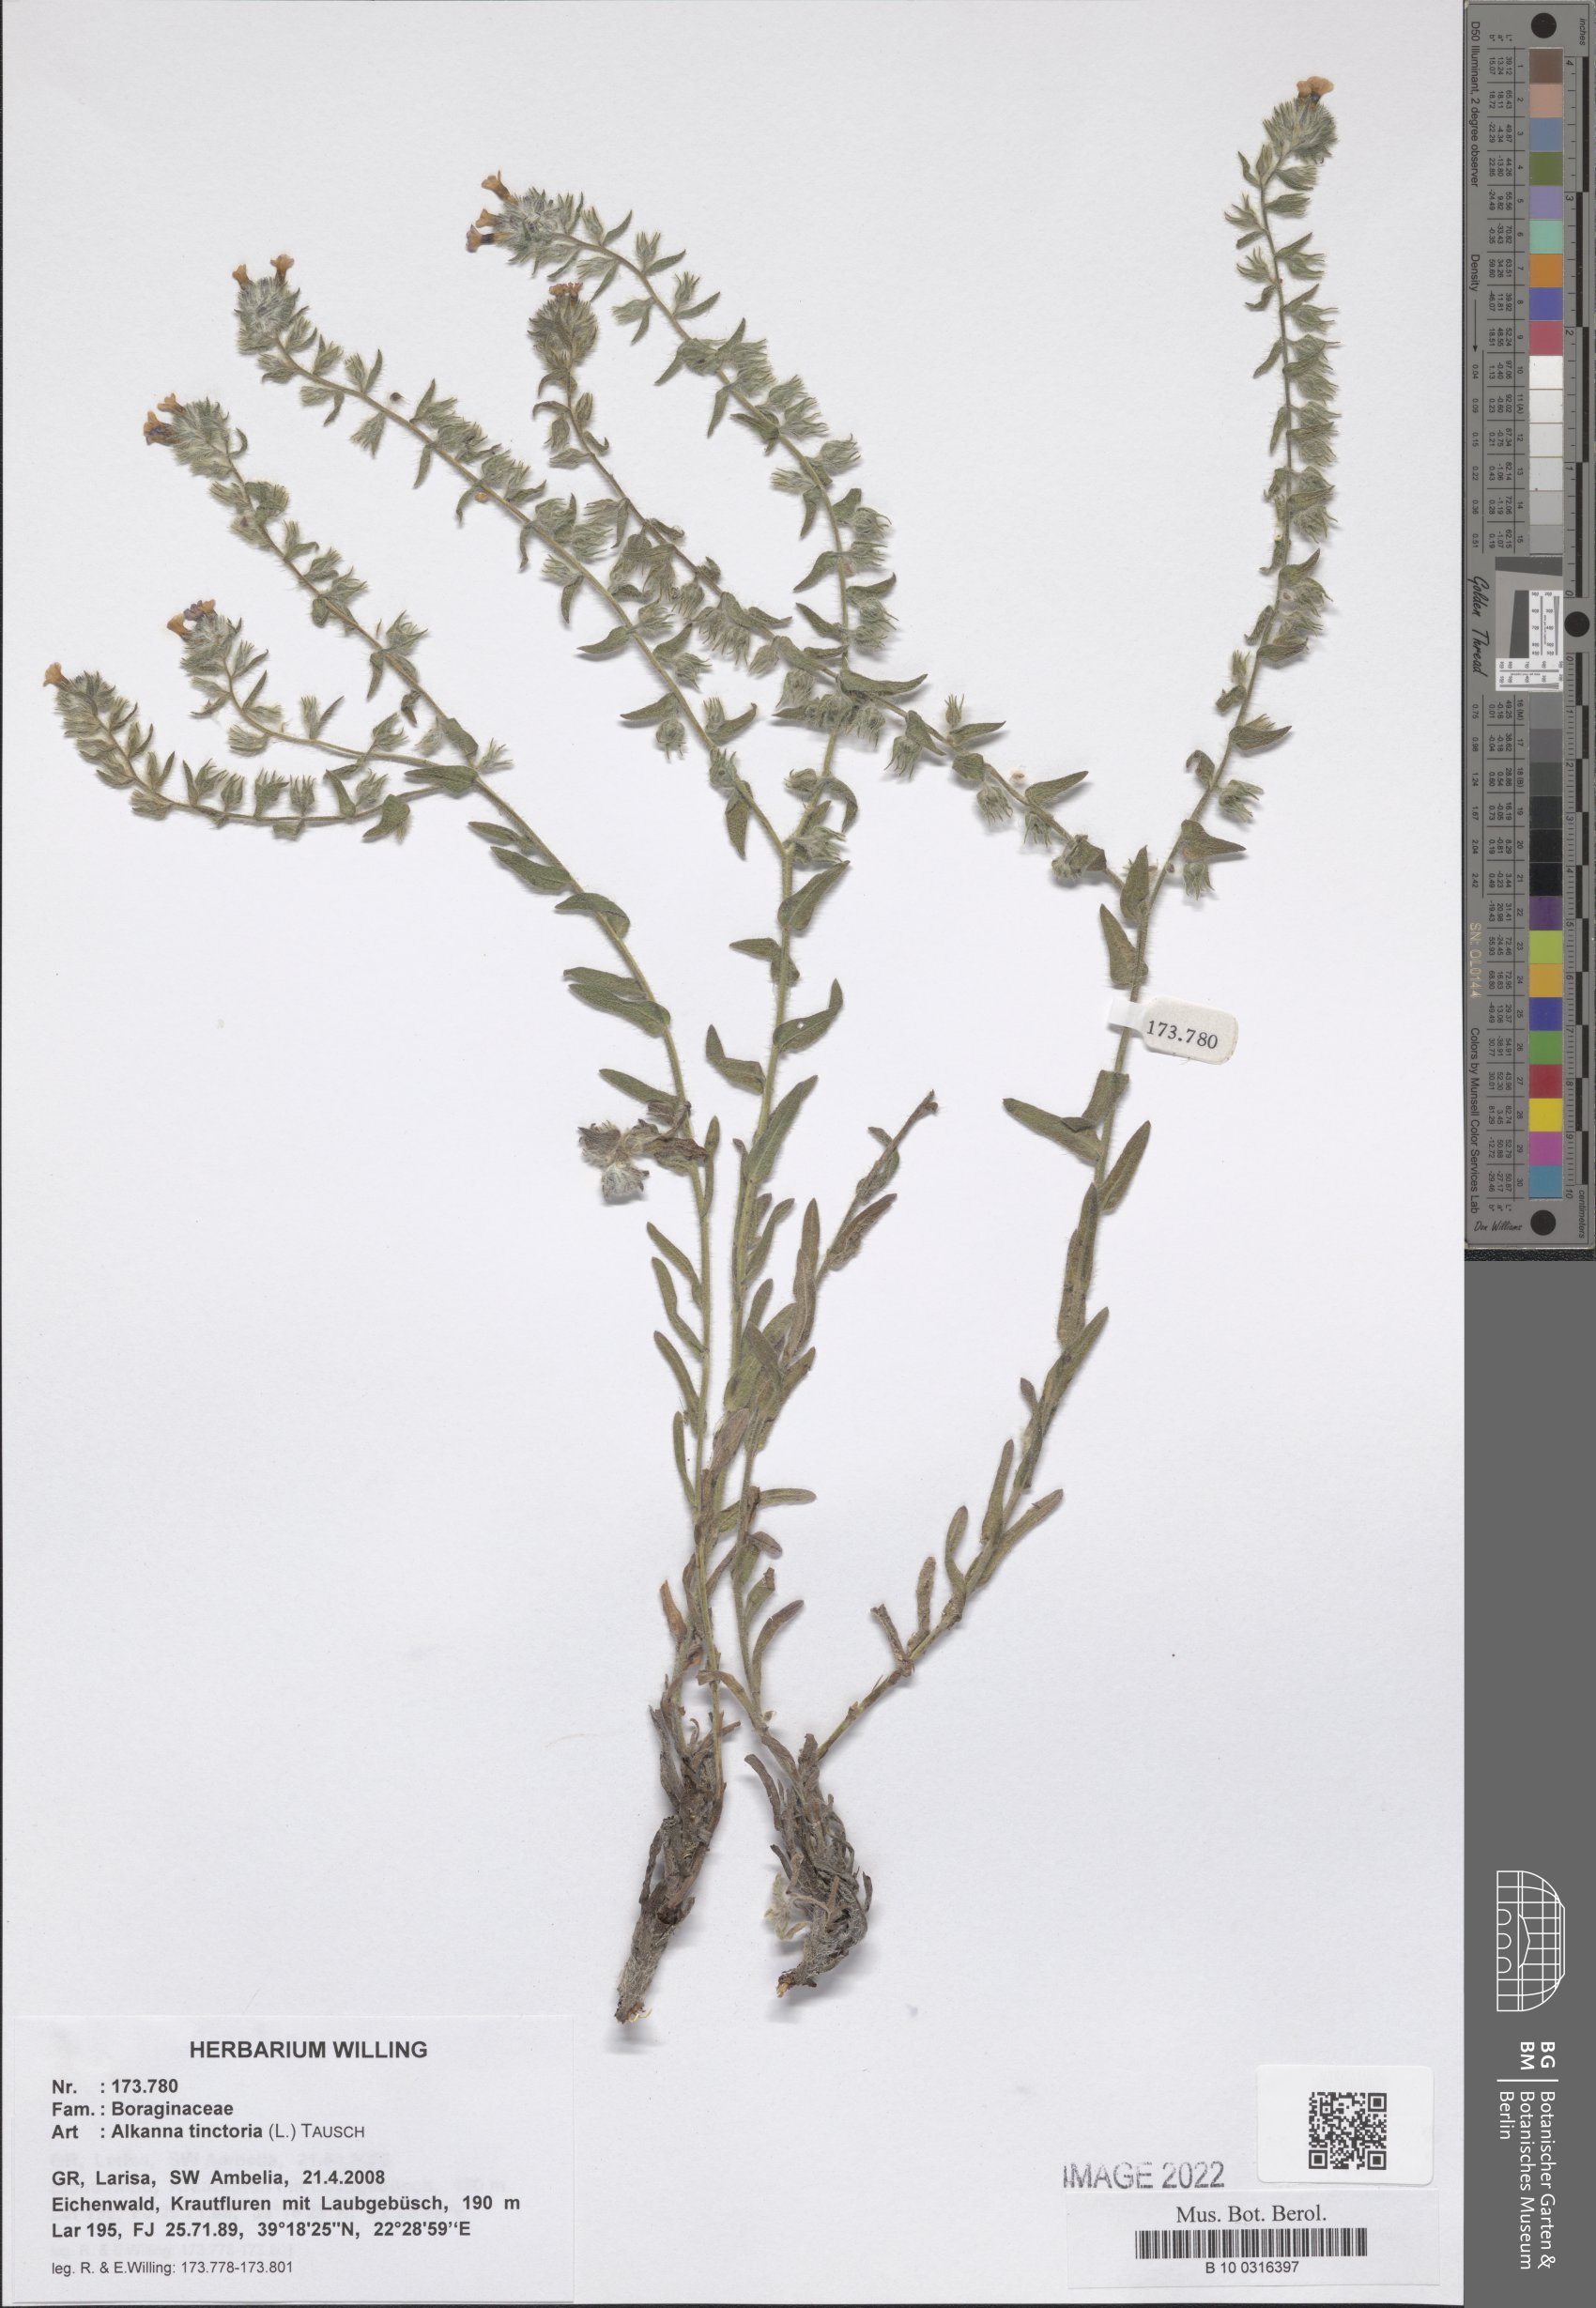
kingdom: Plantae
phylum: Tracheophyta
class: Magnoliopsida
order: Boraginales
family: Boraginaceae
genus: Alkanna
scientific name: Alkanna tinctoria
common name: Dyer's-alkanet
